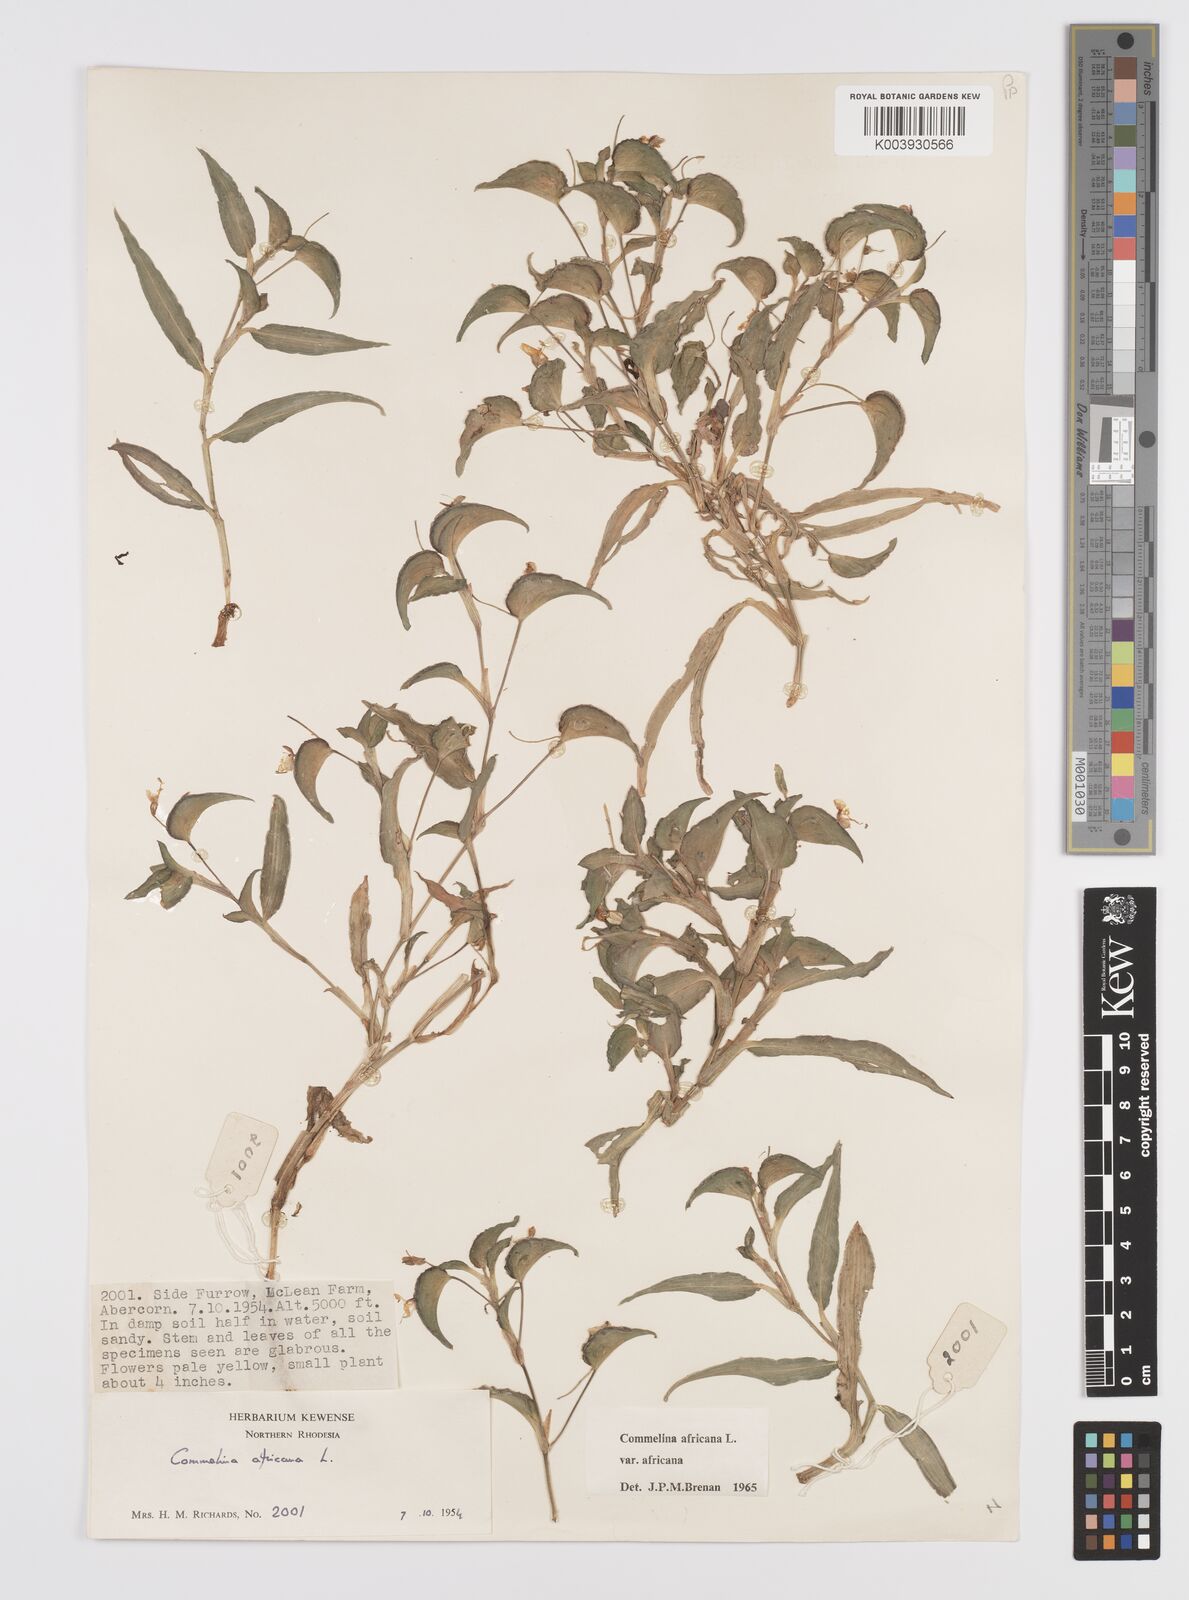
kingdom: Plantae
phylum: Tracheophyta
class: Liliopsida
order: Commelinales
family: Commelinaceae
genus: Commelina
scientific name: Commelina africana
